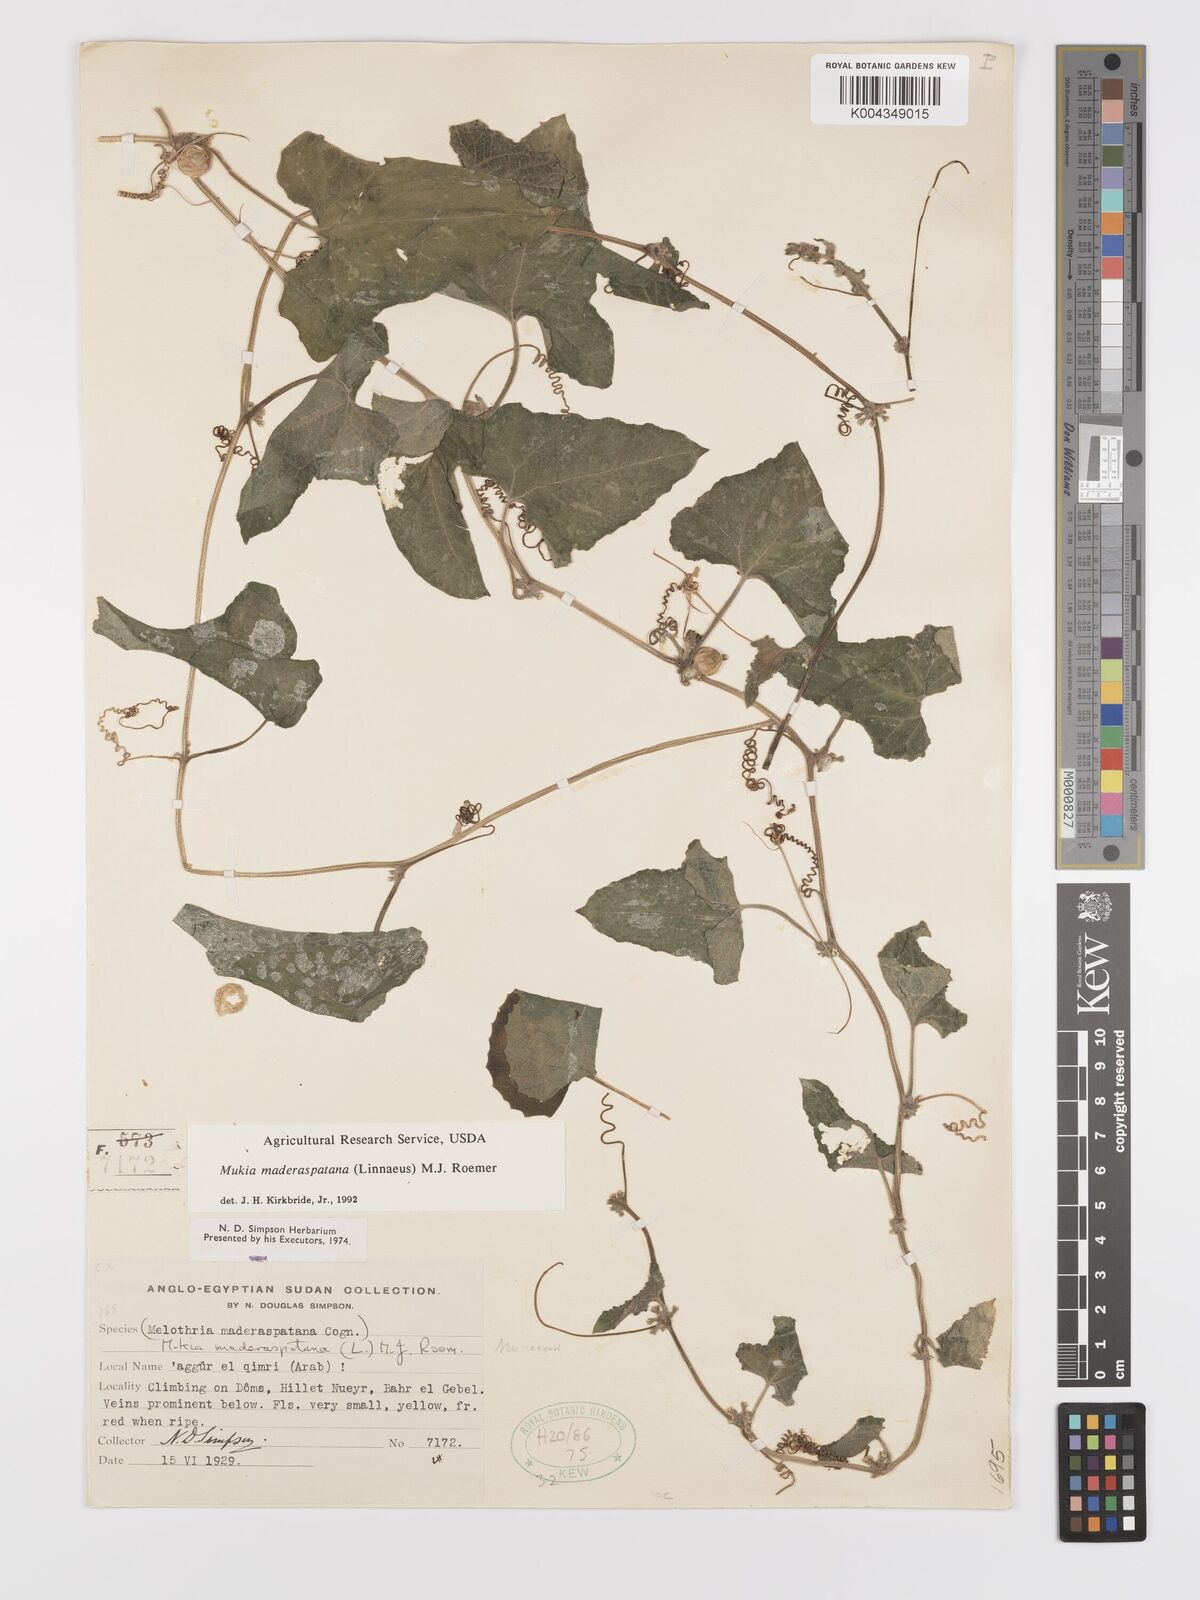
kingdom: Plantae
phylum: Tracheophyta
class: Magnoliopsida
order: Cucurbitales
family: Cucurbitaceae
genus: Cucumis
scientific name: Cucumis maderaspatanus
